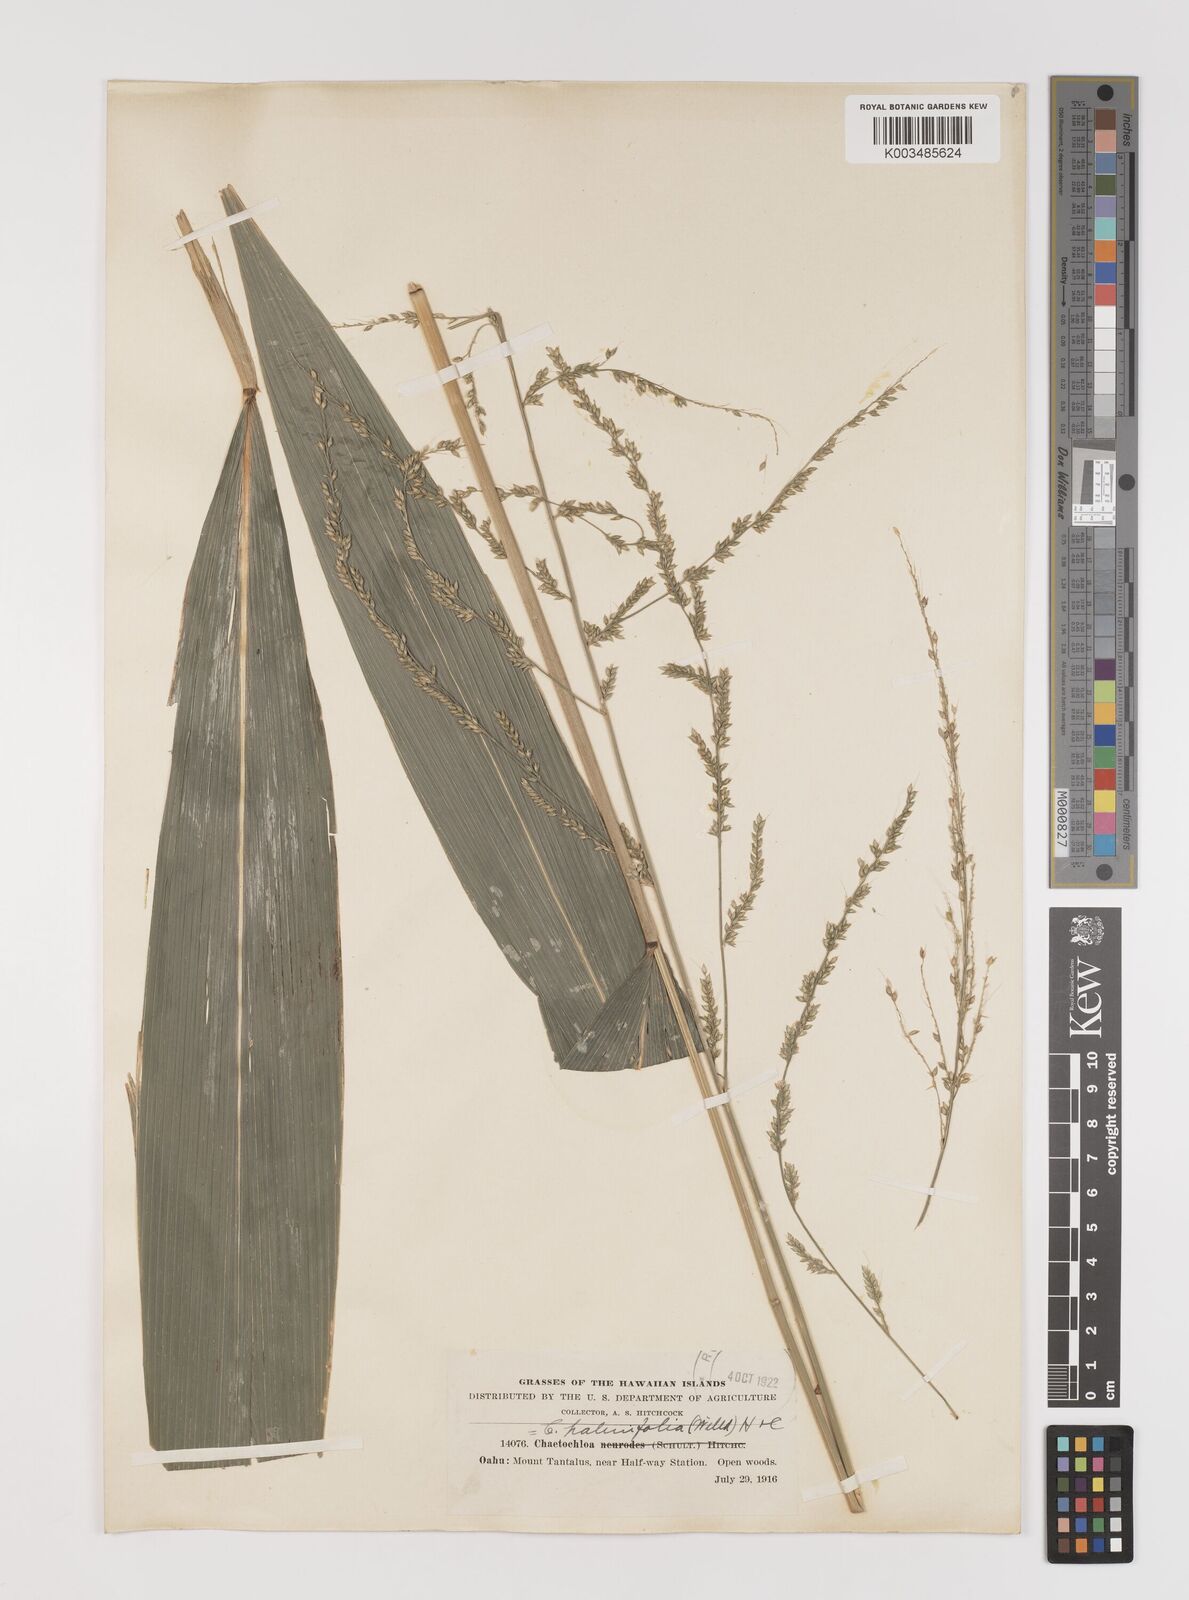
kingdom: Plantae
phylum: Tracheophyta
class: Liliopsida
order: Poales
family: Poaceae
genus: Setaria
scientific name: Setaria palmifolia
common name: Broadleaved bristlegrass
